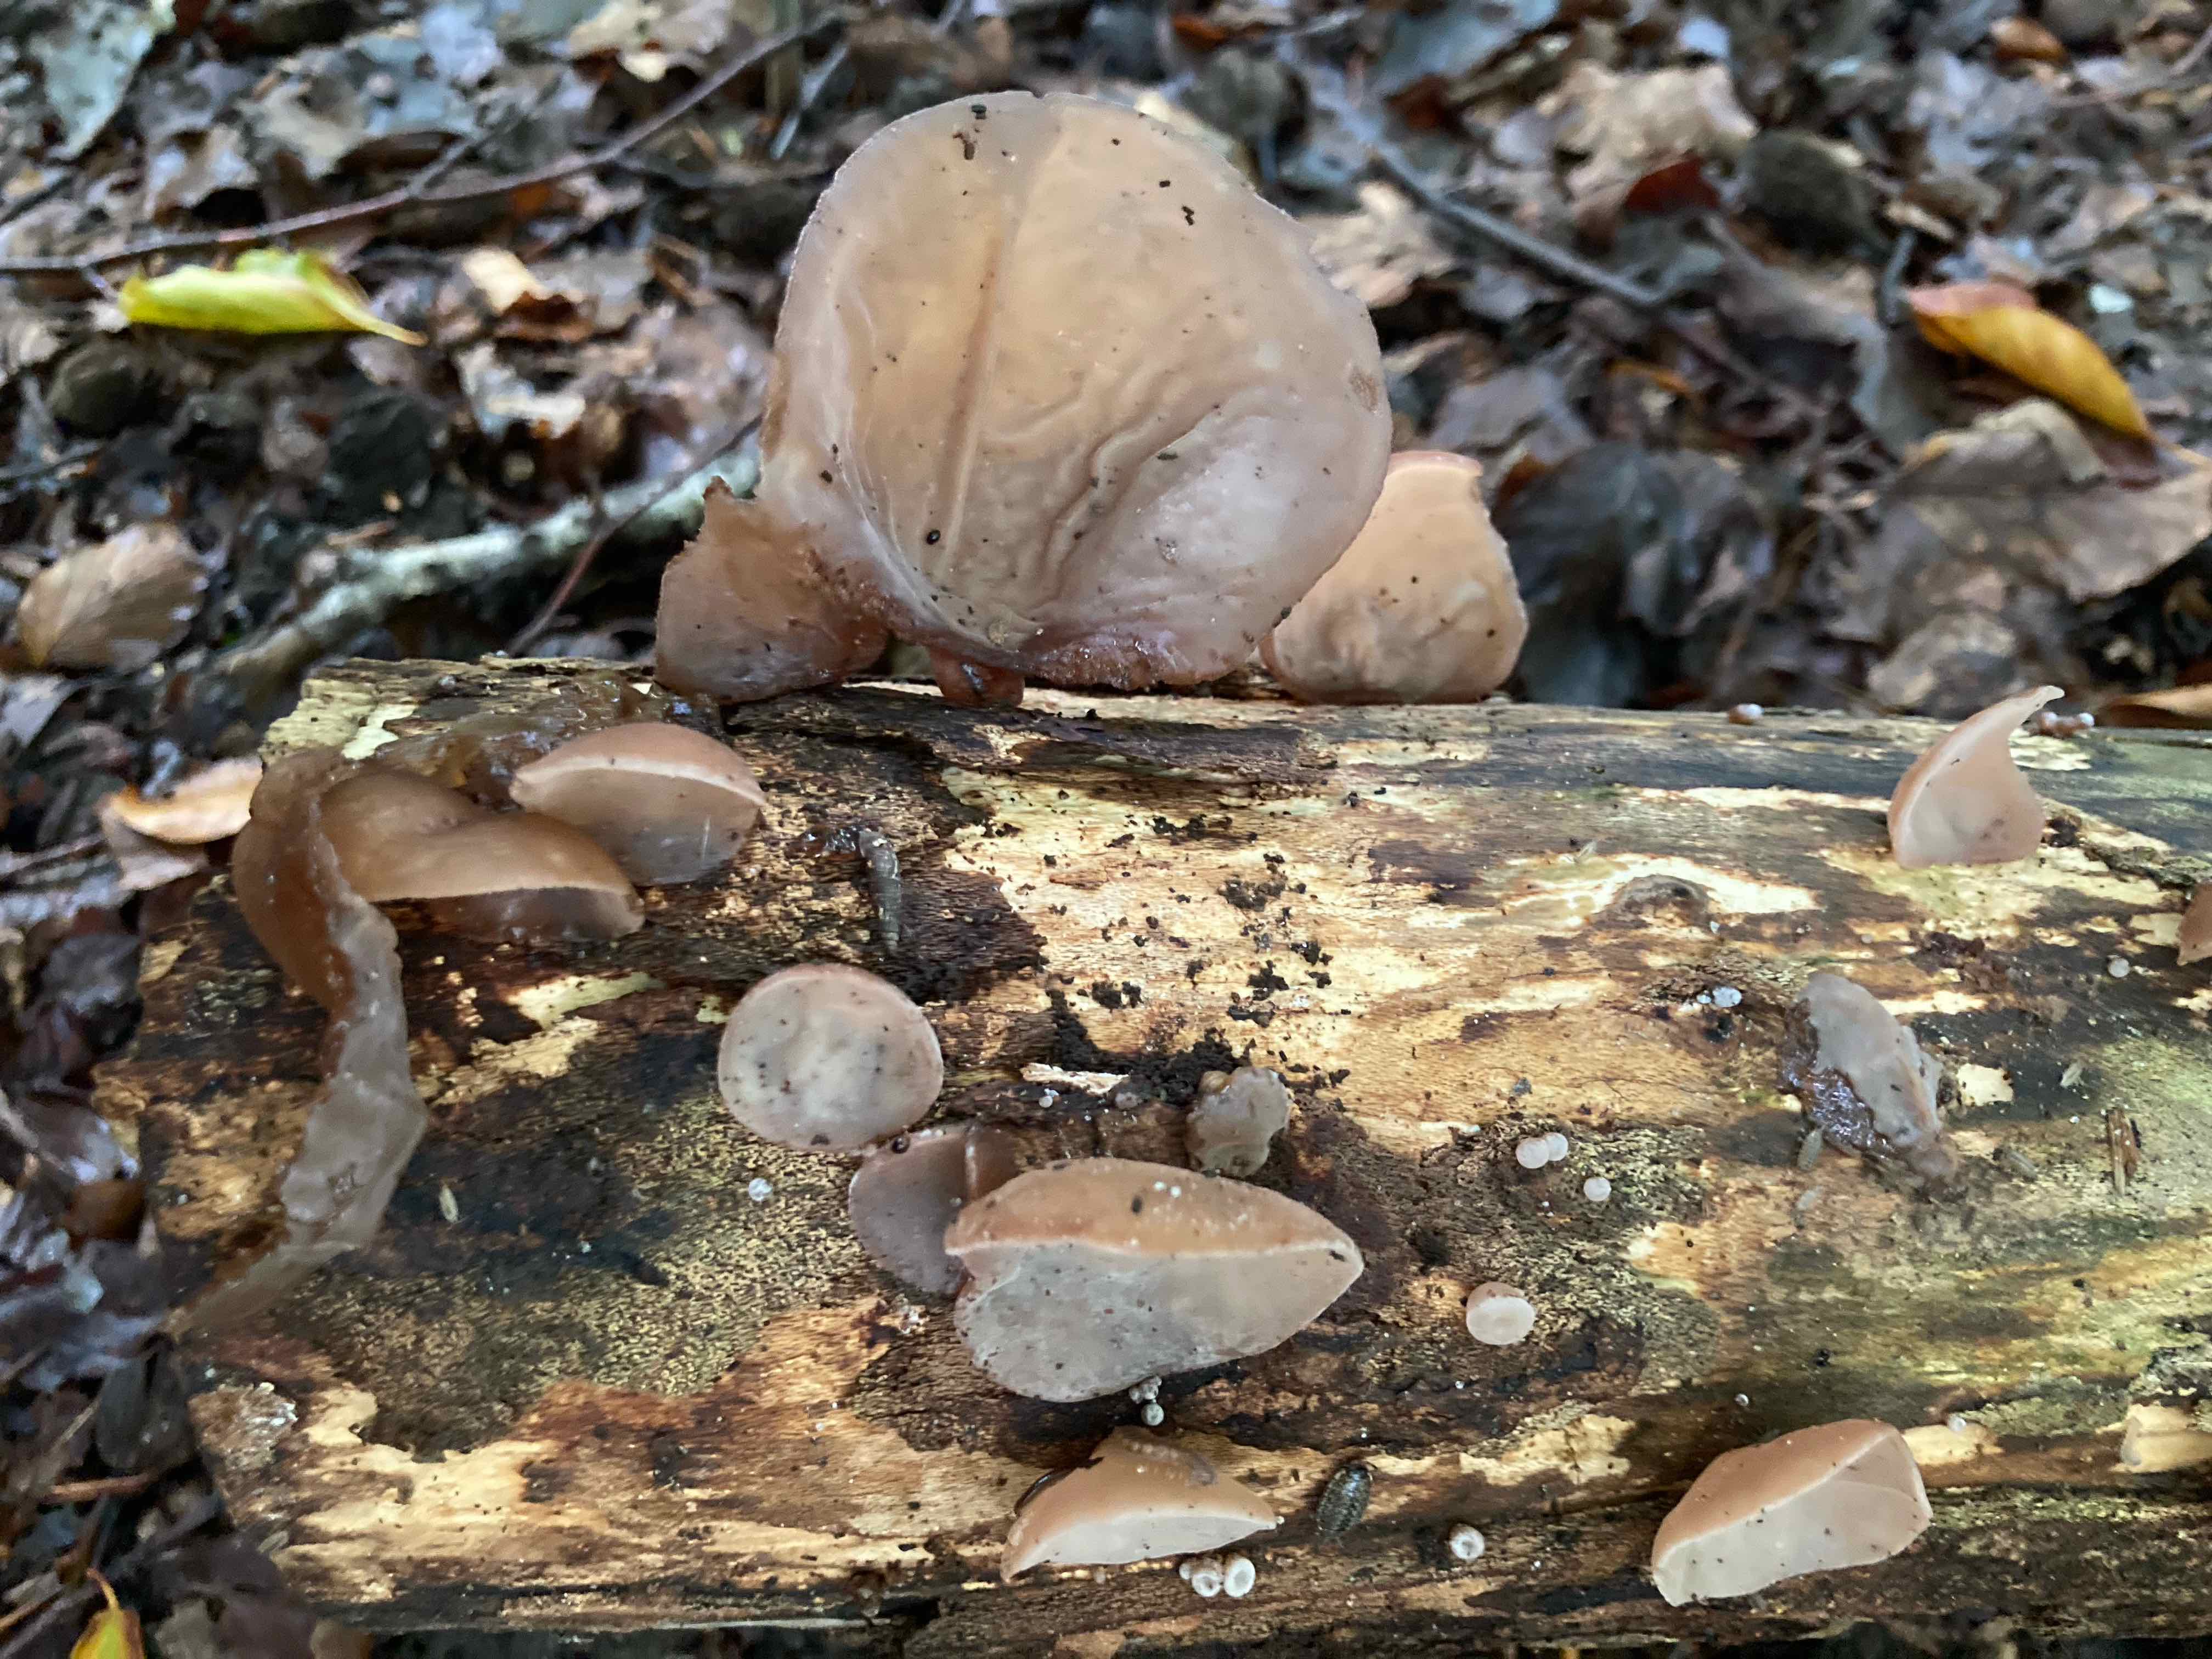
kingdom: Fungi
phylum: Basidiomycota
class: Agaricomycetes
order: Auriculariales
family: Auriculariaceae
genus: Auricularia
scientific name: Auricularia auricula-judae
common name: almindelig judasøre
